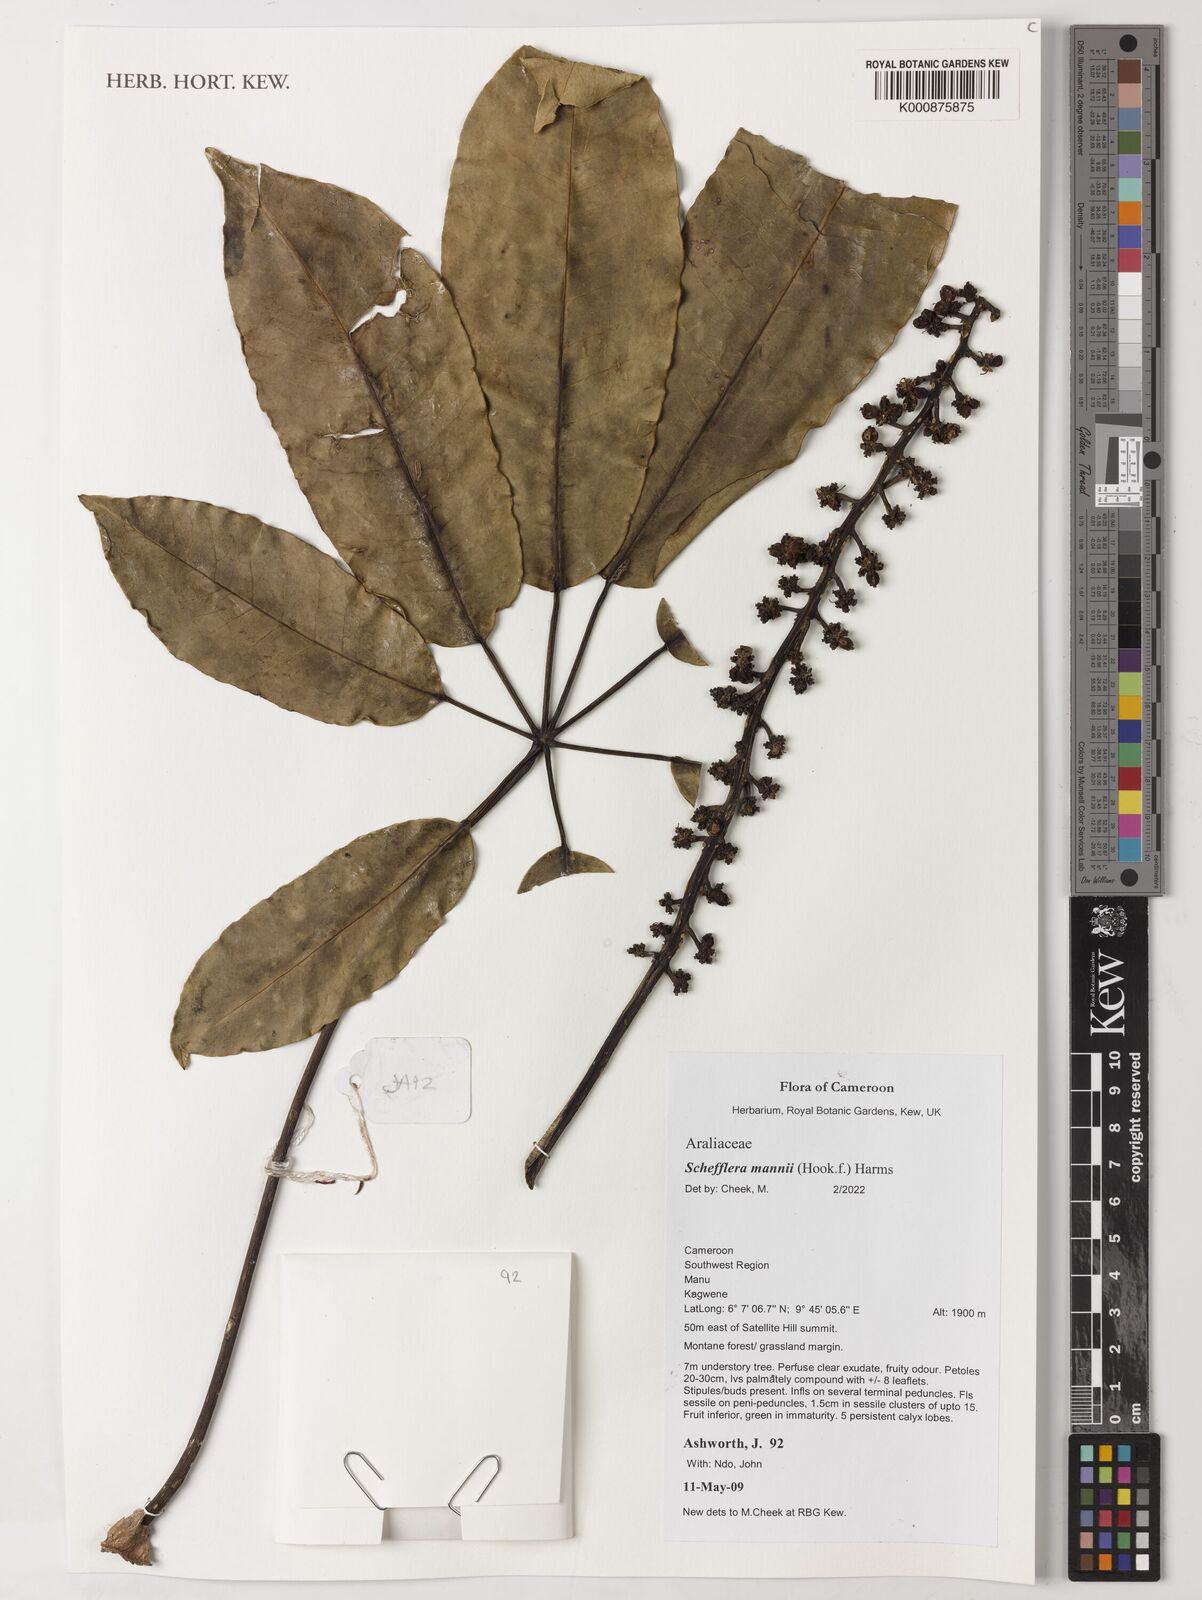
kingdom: Plantae
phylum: Tracheophyta
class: Magnoliopsida
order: Apiales
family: Araliaceae
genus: Astropanax
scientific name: Astropanax mannii
